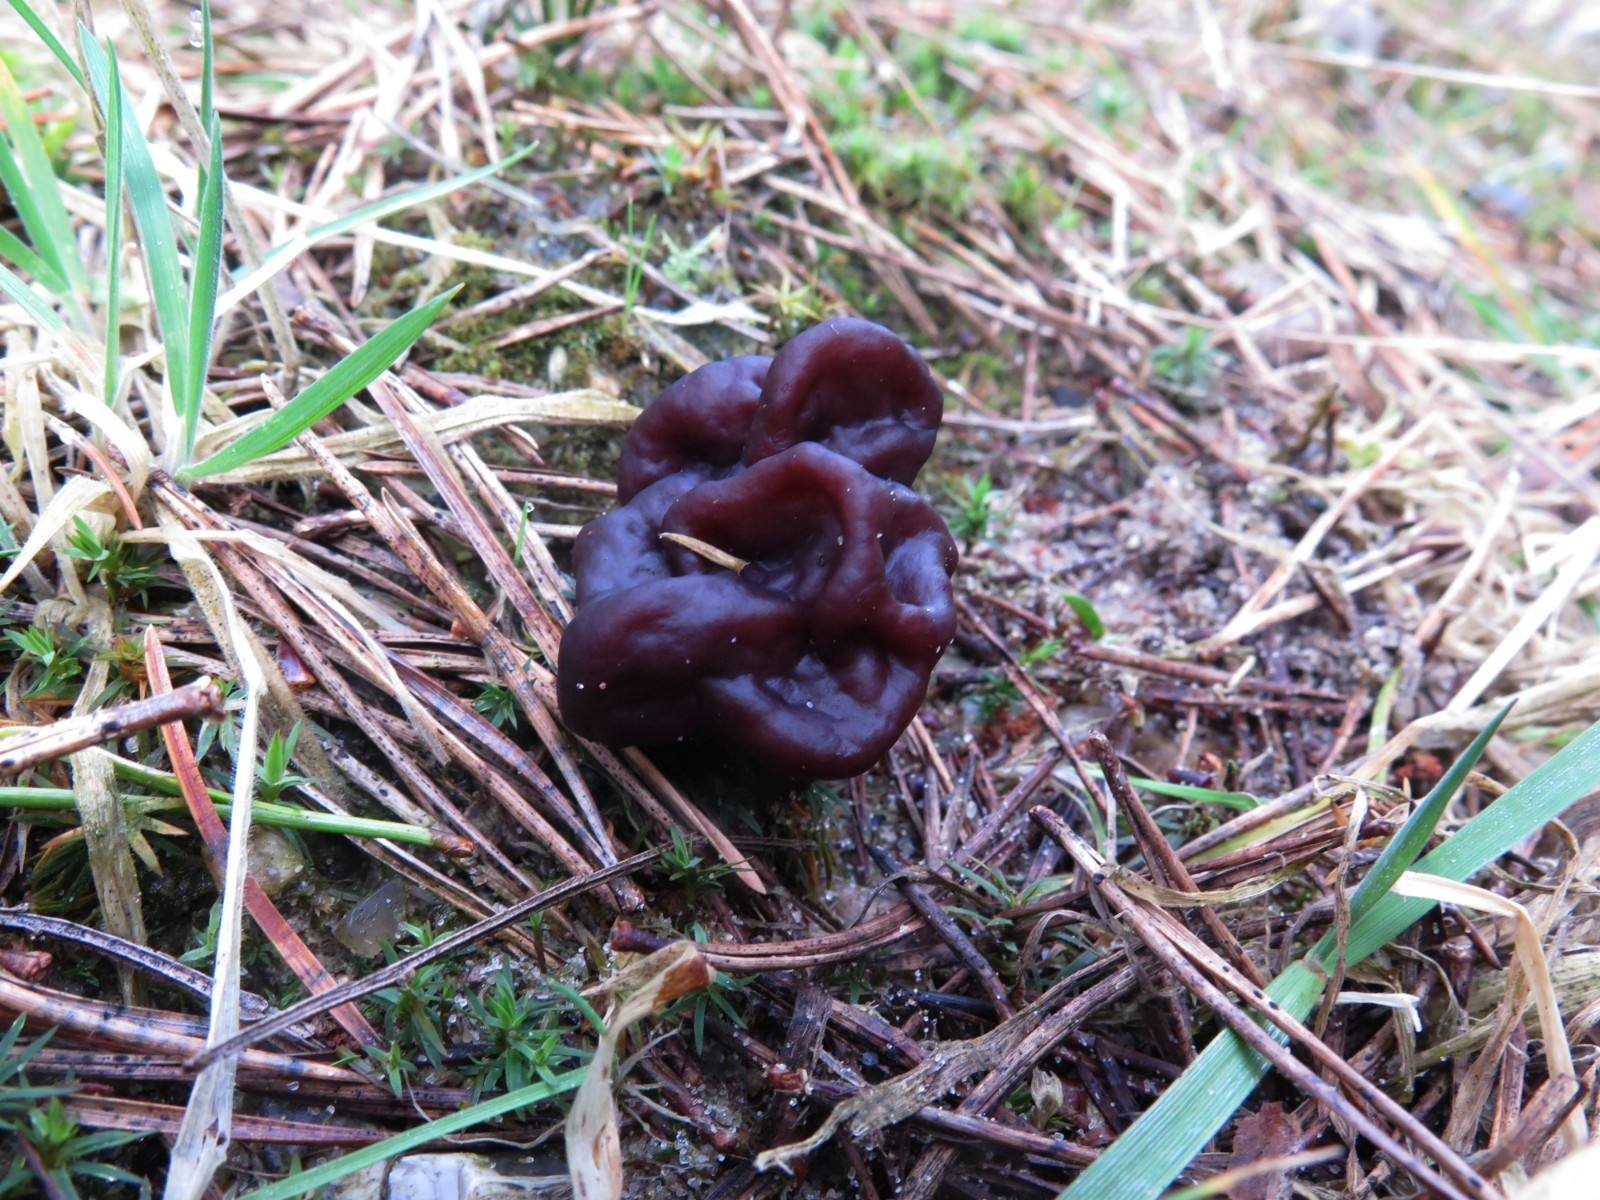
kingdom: Fungi
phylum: Ascomycota
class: Pezizomycetes
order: Pezizales
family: Discinaceae
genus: Gyromitra
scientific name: Gyromitra esculenta
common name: ægte stenmorkel
